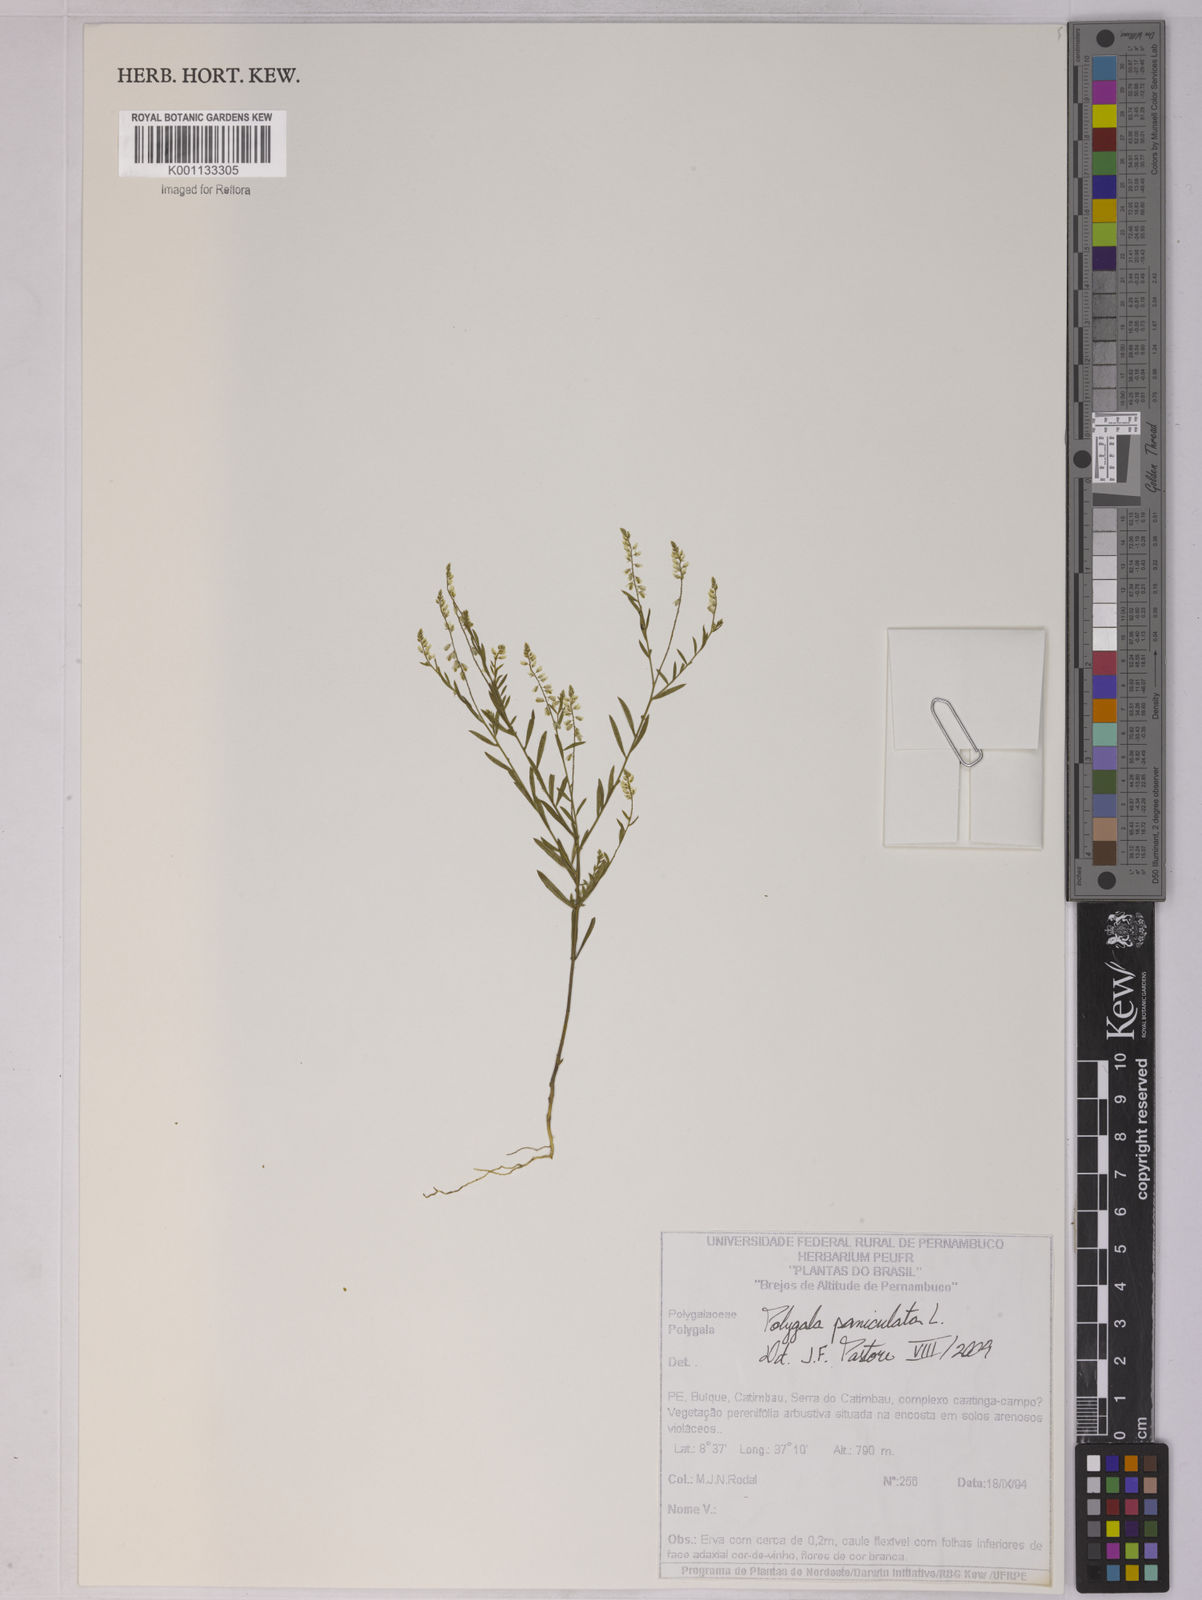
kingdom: Plantae
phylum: Tracheophyta
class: Magnoliopsida
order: Fabales
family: Polygalaceae
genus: Polygala
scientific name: Polygala paniculata
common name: Orosne
